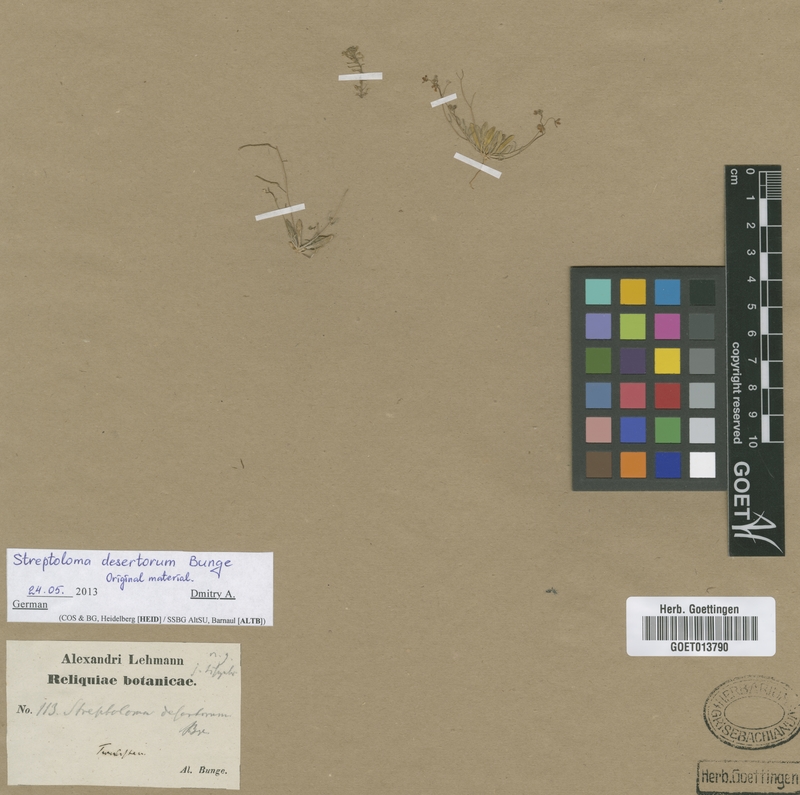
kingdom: Plantae
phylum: Tracheophyta
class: Magnoliopsida
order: Brassicales
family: Brassicaceae
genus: Streptoloma
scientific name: Streptoloma desertorum
